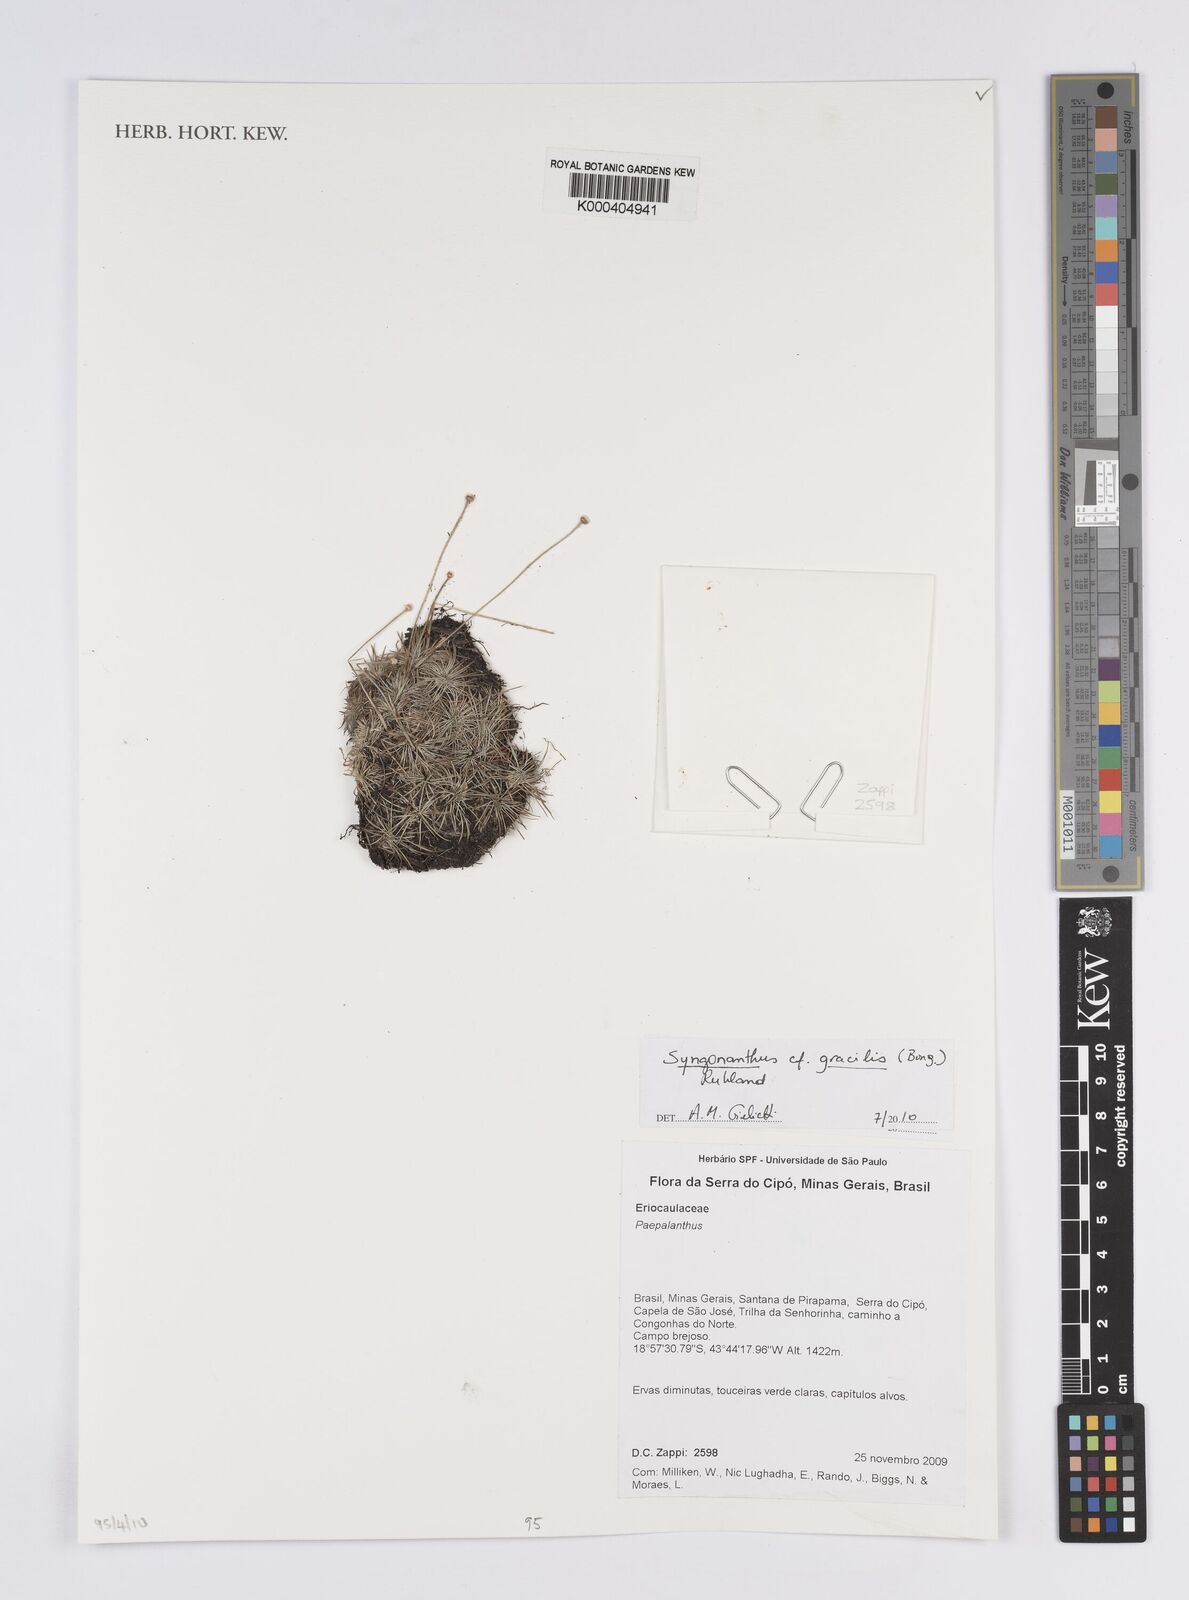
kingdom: Plantae
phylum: Tracheophyta
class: Liliopsida
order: Poales
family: Eriocaulaceae
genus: Syngonanthus
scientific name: Syngonanthus gracilis
